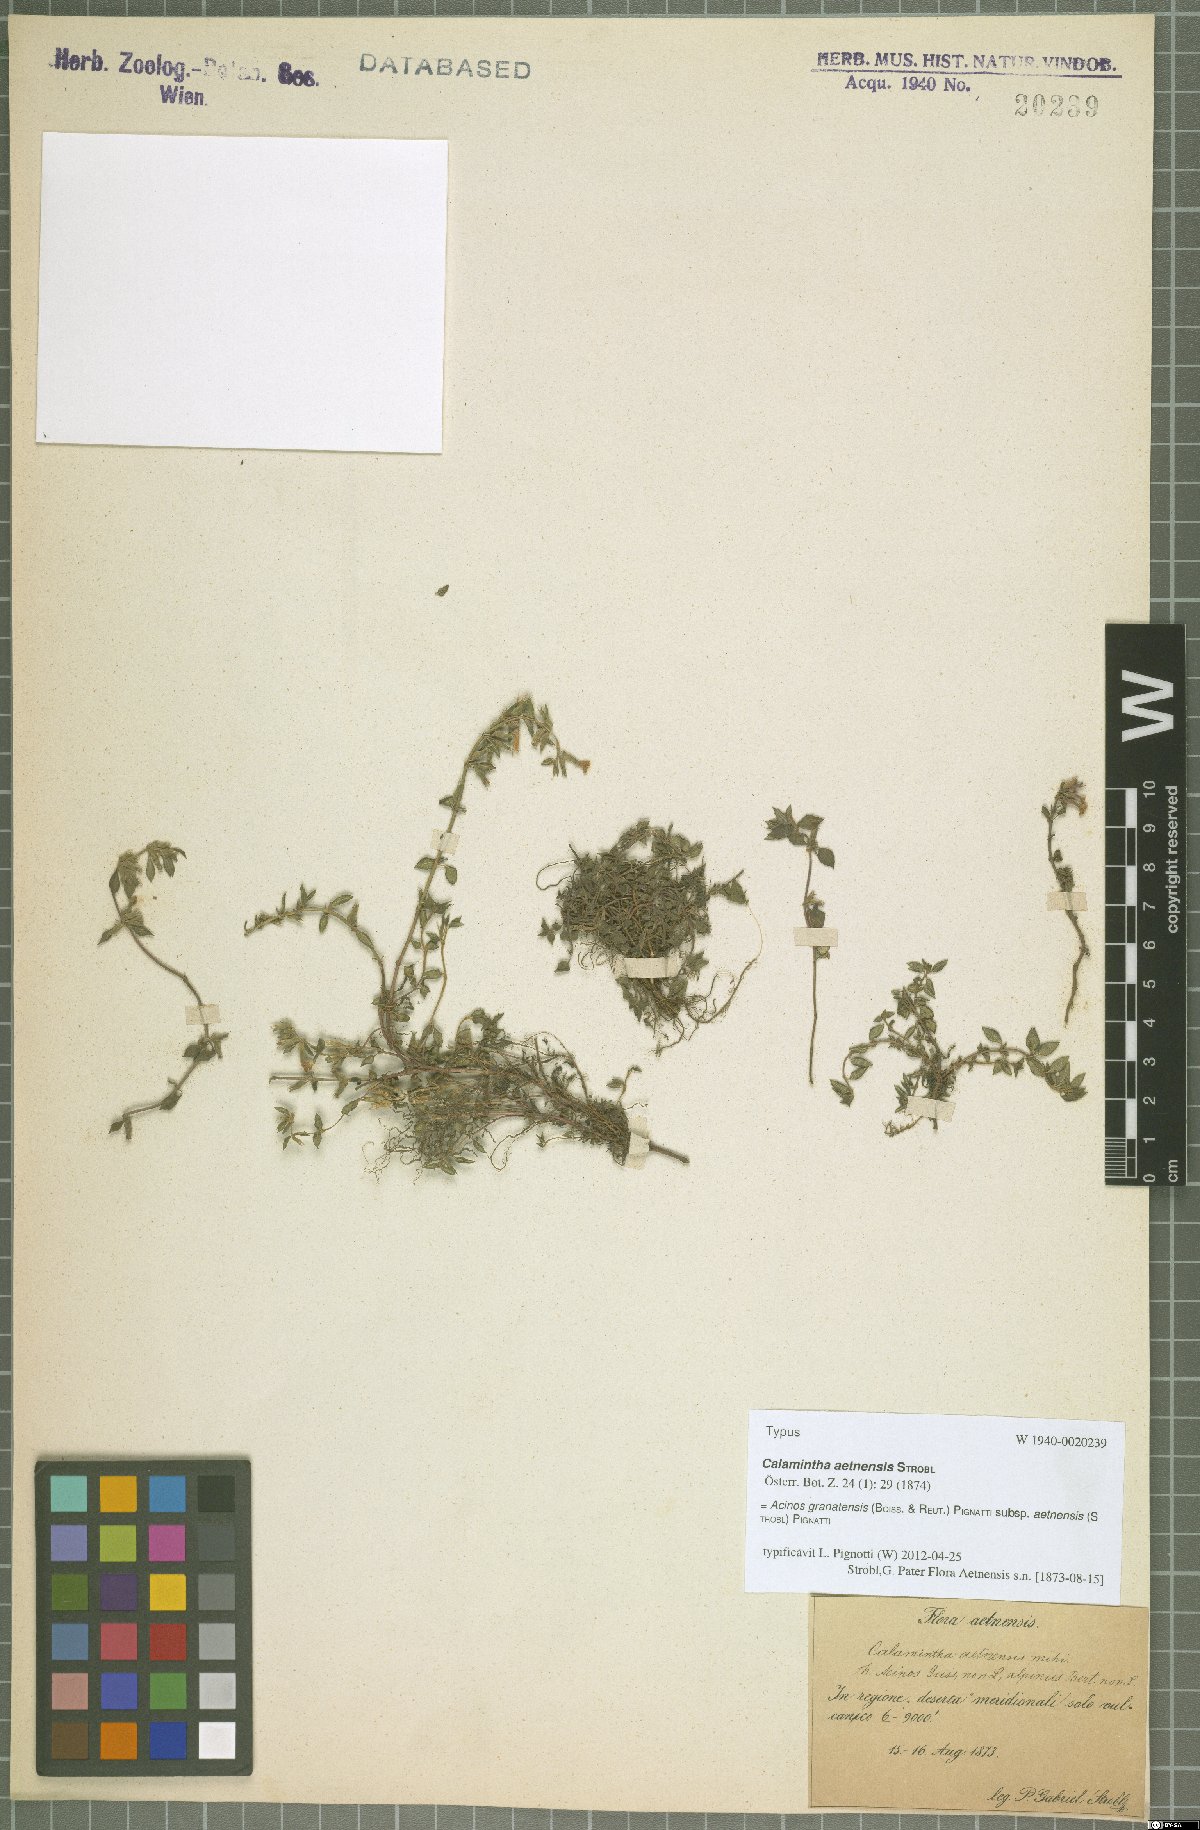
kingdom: Plantae
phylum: Tracheophyta
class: Magnoliopsida
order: Lamiales
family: Lamiaceae
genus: Clinopodium
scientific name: Clinopodium alpinum
